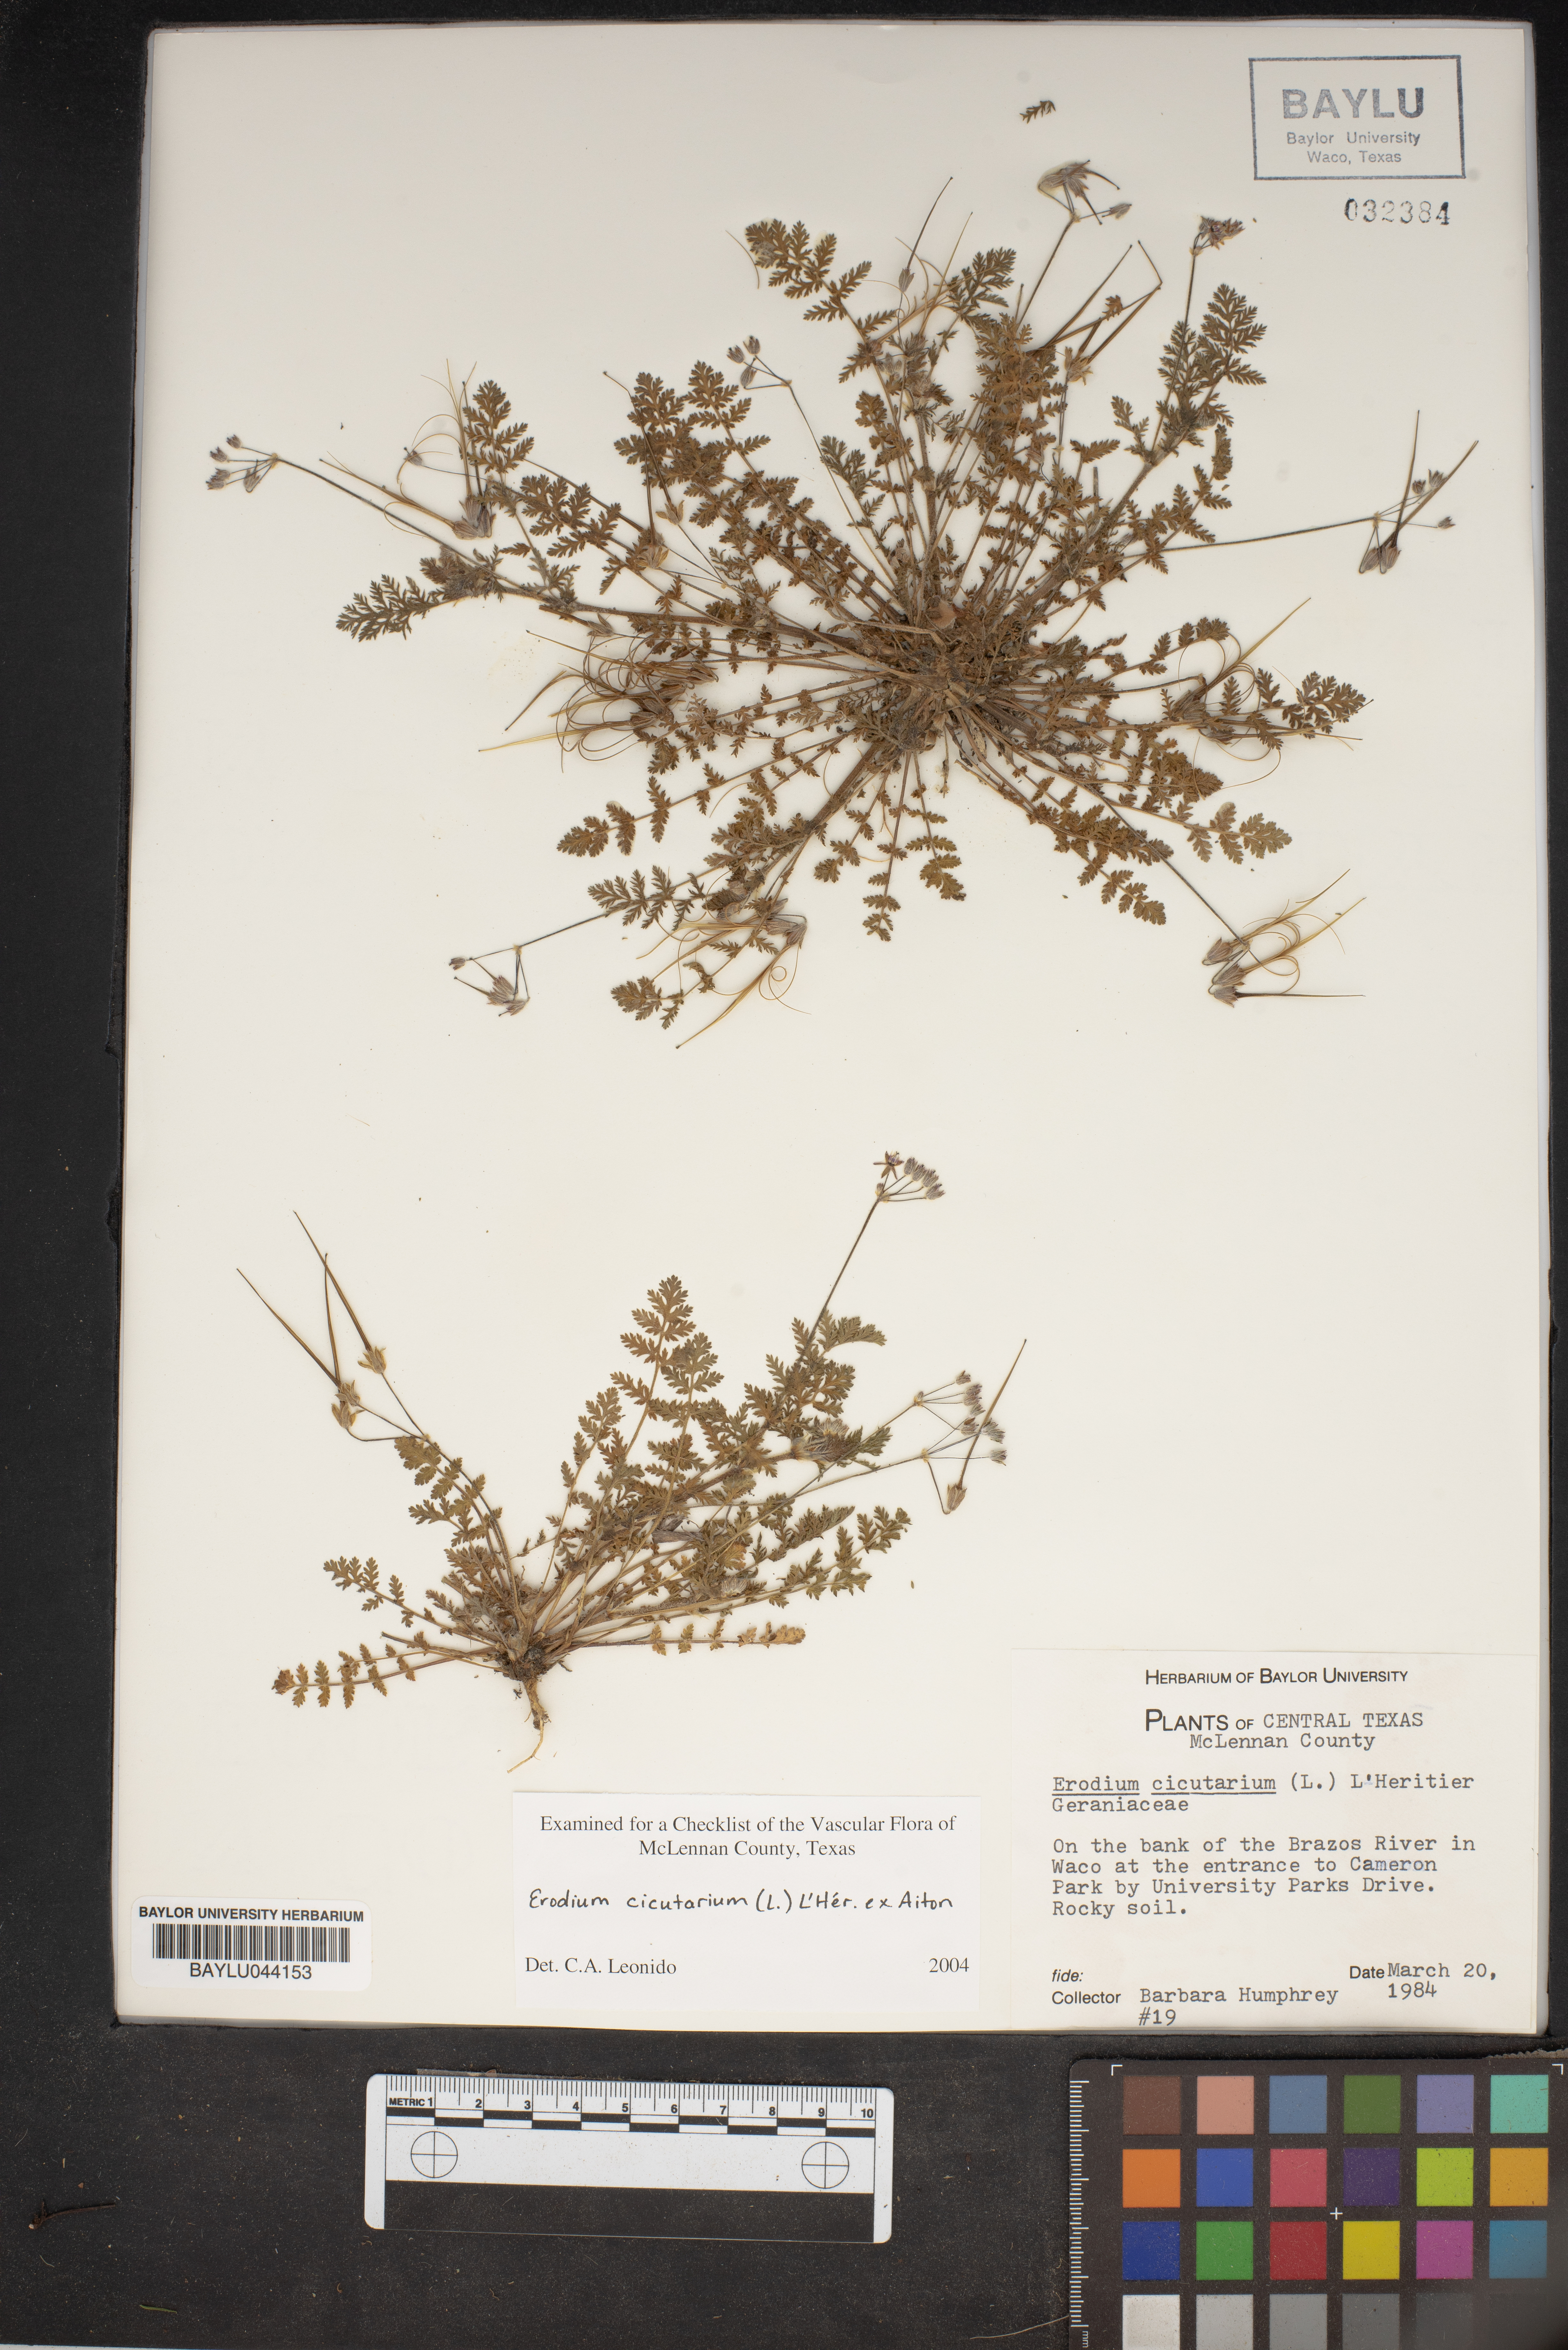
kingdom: Plantae
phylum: Tracheophyta
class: Magnoliopsida
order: Geraniales
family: Geraniaceae
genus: Erodium
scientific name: Erodium cicutarium
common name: Common stork's-bill
